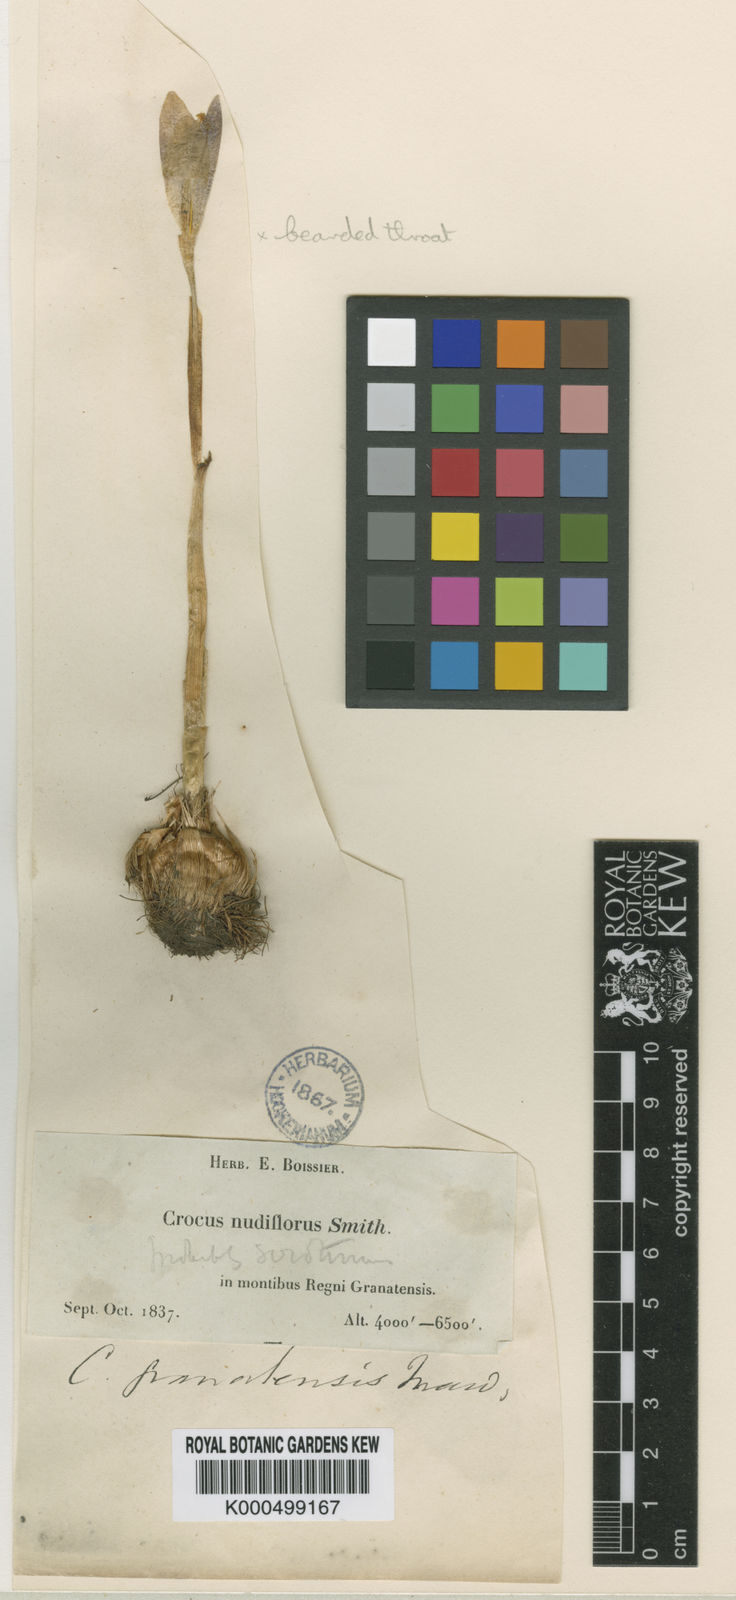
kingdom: Plantae
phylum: Tracheophyta
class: Liliopsida
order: Asparagales
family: Iridaceae
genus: Crocus
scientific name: Crocus salzmannii
